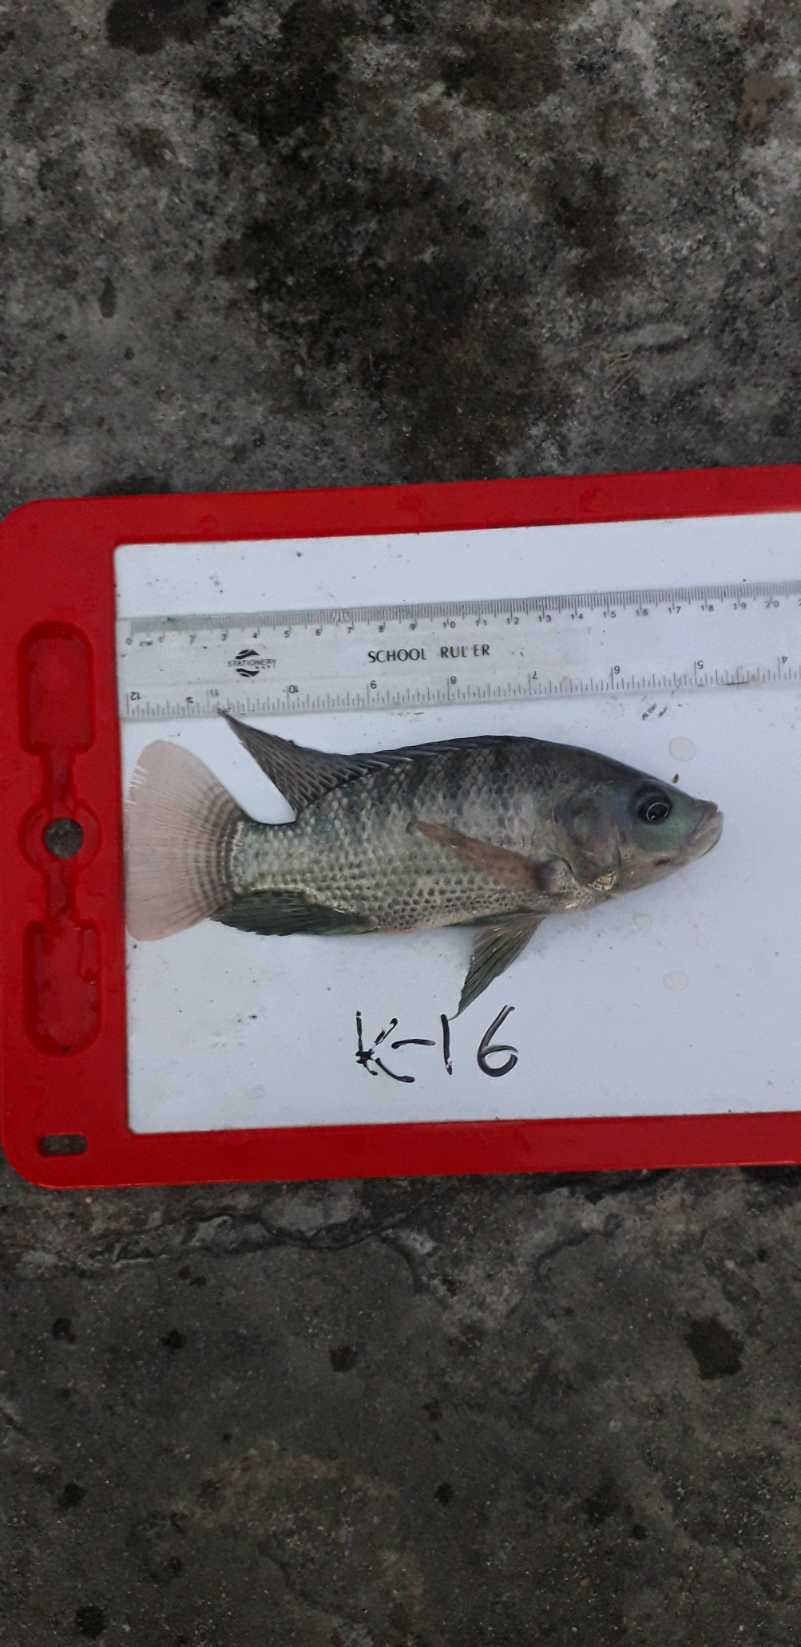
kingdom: Animalia
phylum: Chordata
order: Perciformes
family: Cichlidae
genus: Oreochromis
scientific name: Oreochromis niloticus
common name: Nile tilapia
